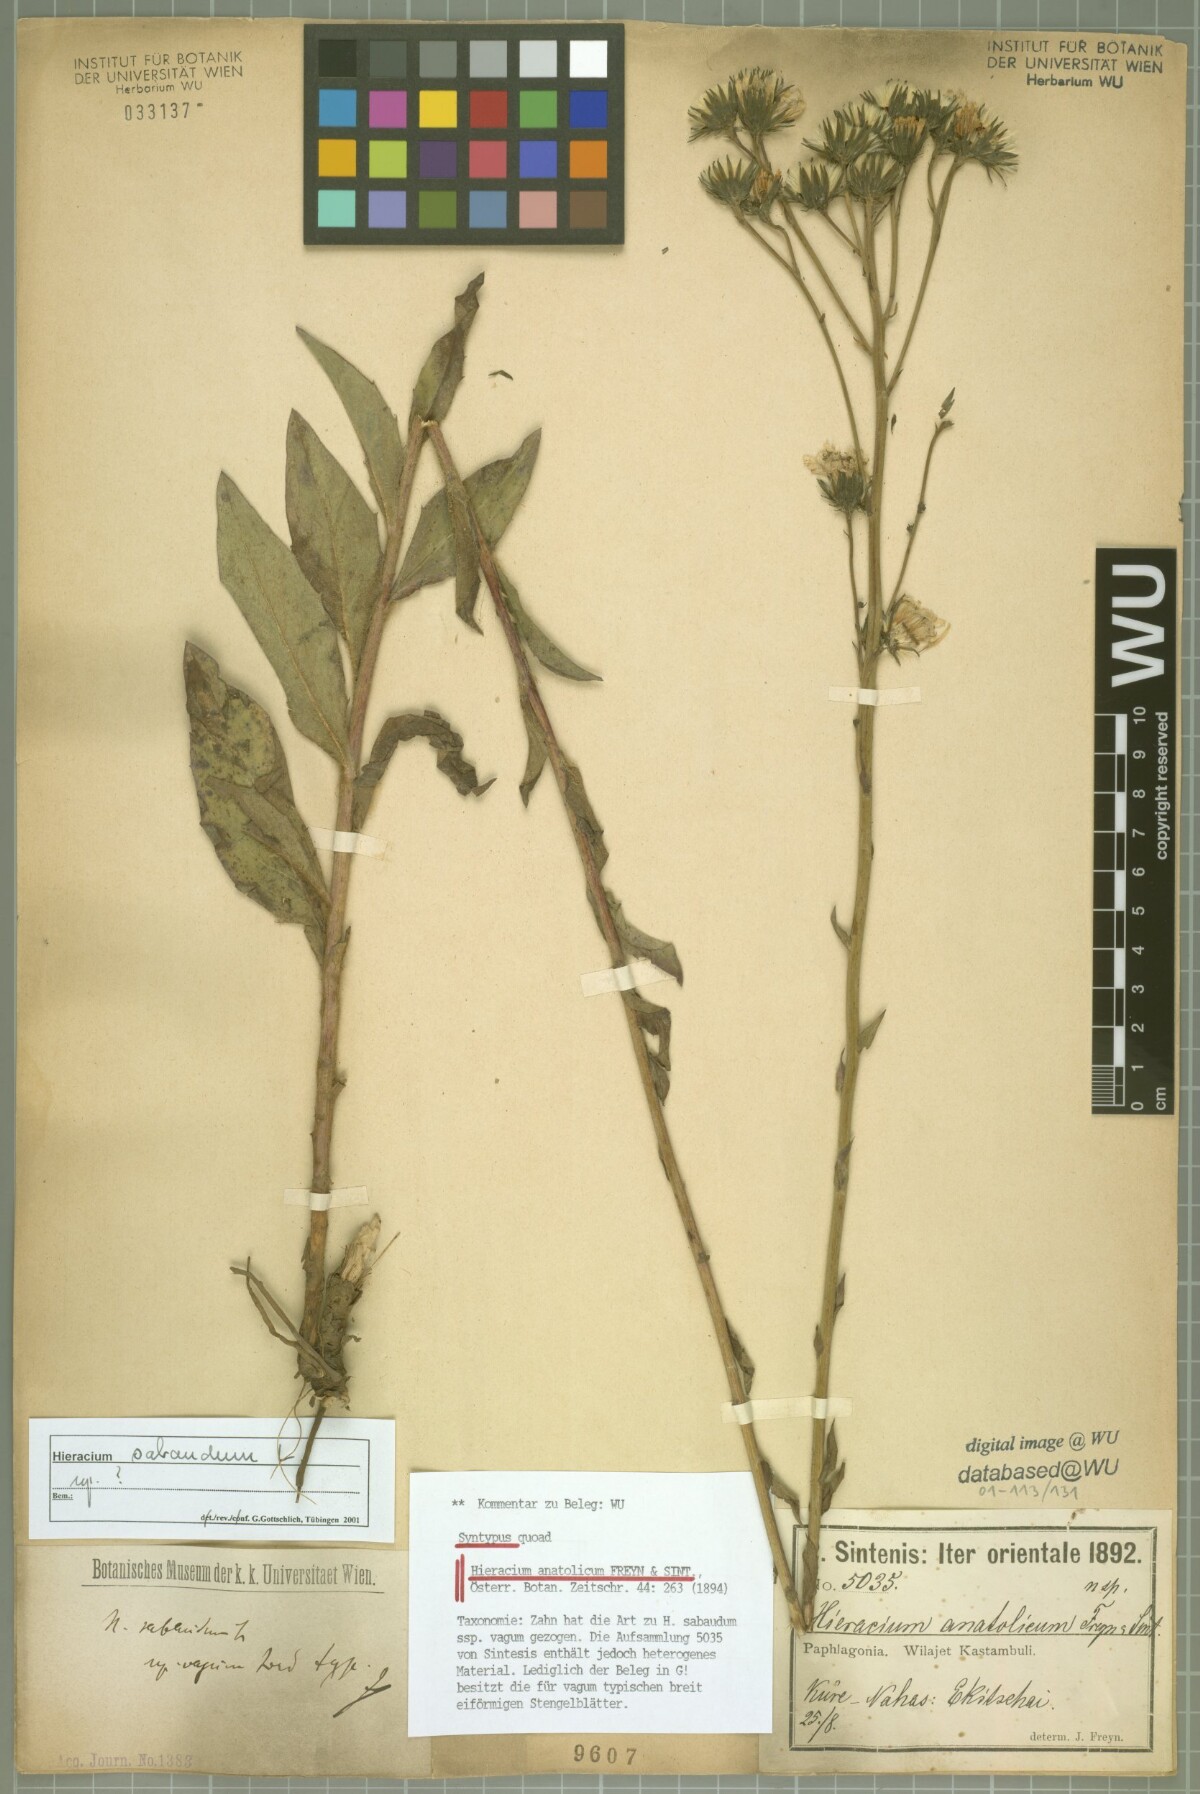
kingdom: Plantae
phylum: Tracheophyta
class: Magnoliopsida
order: Asterales
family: Asteraceae
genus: Hieracium
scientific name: Hieracium anatolicum
